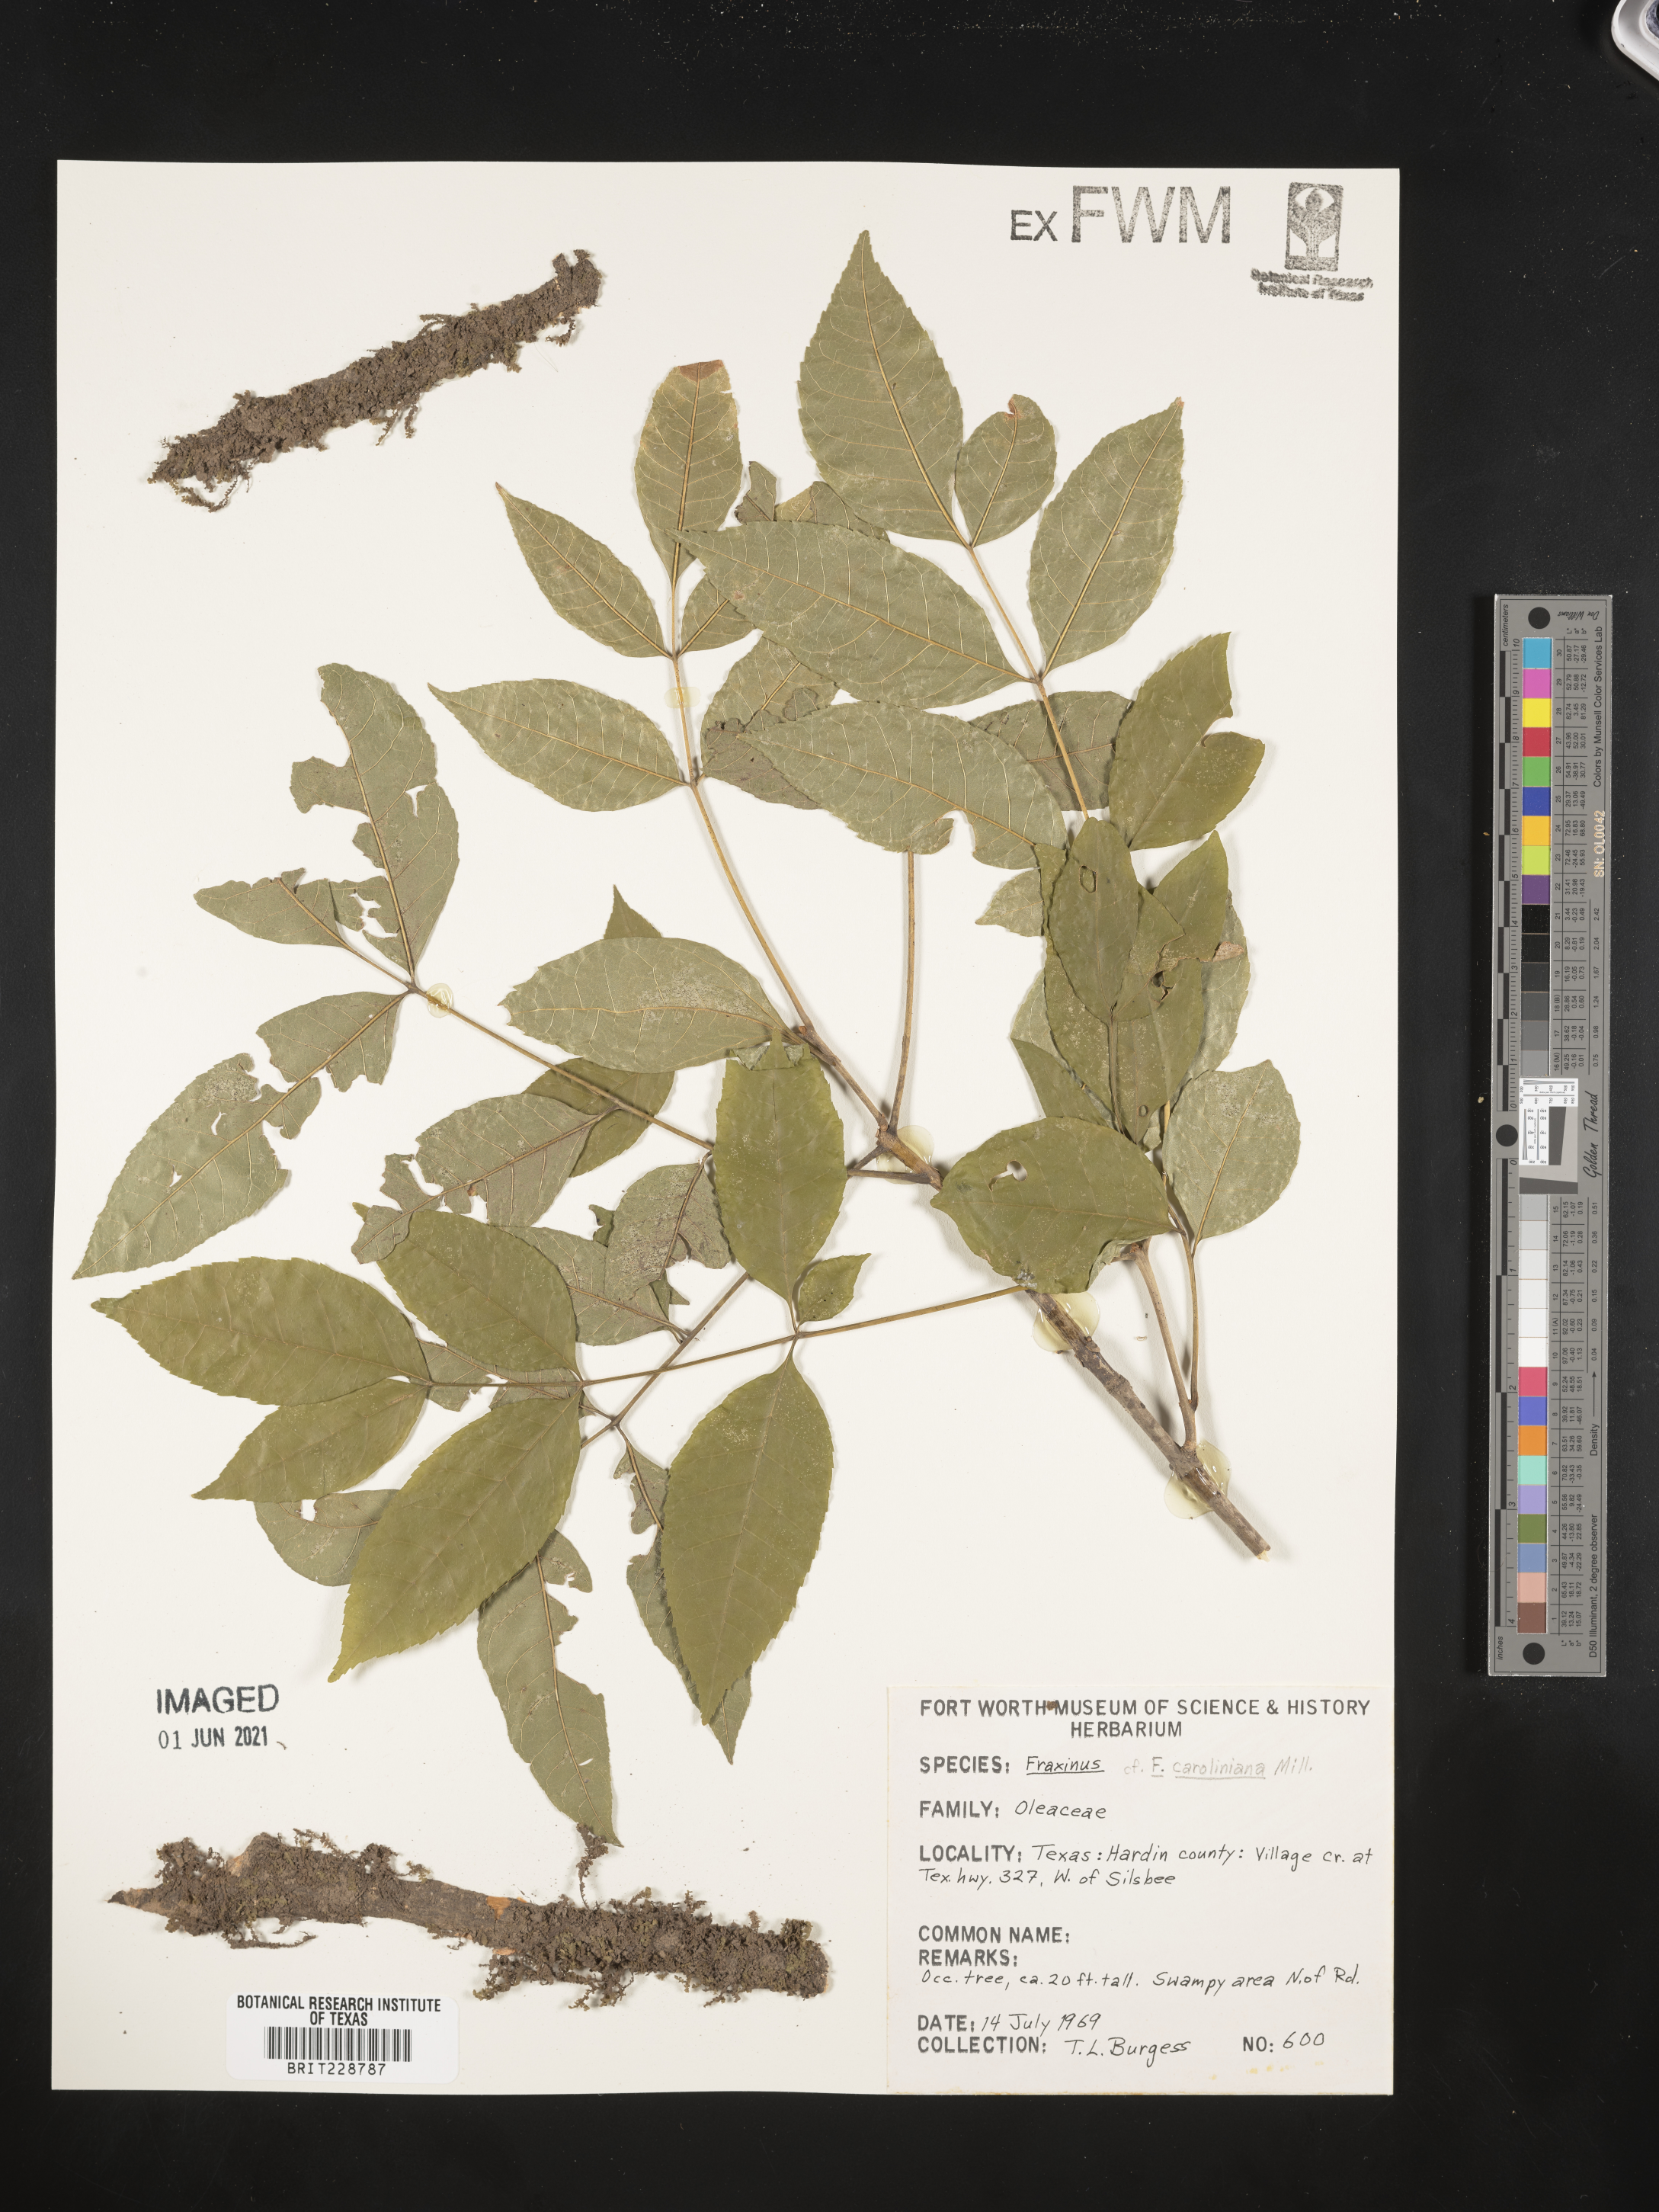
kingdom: Plantae
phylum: Tracheophyta
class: Magnoliopsida
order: Lamiales
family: Oleaceae
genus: Fraxinus
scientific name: Fraxinus
